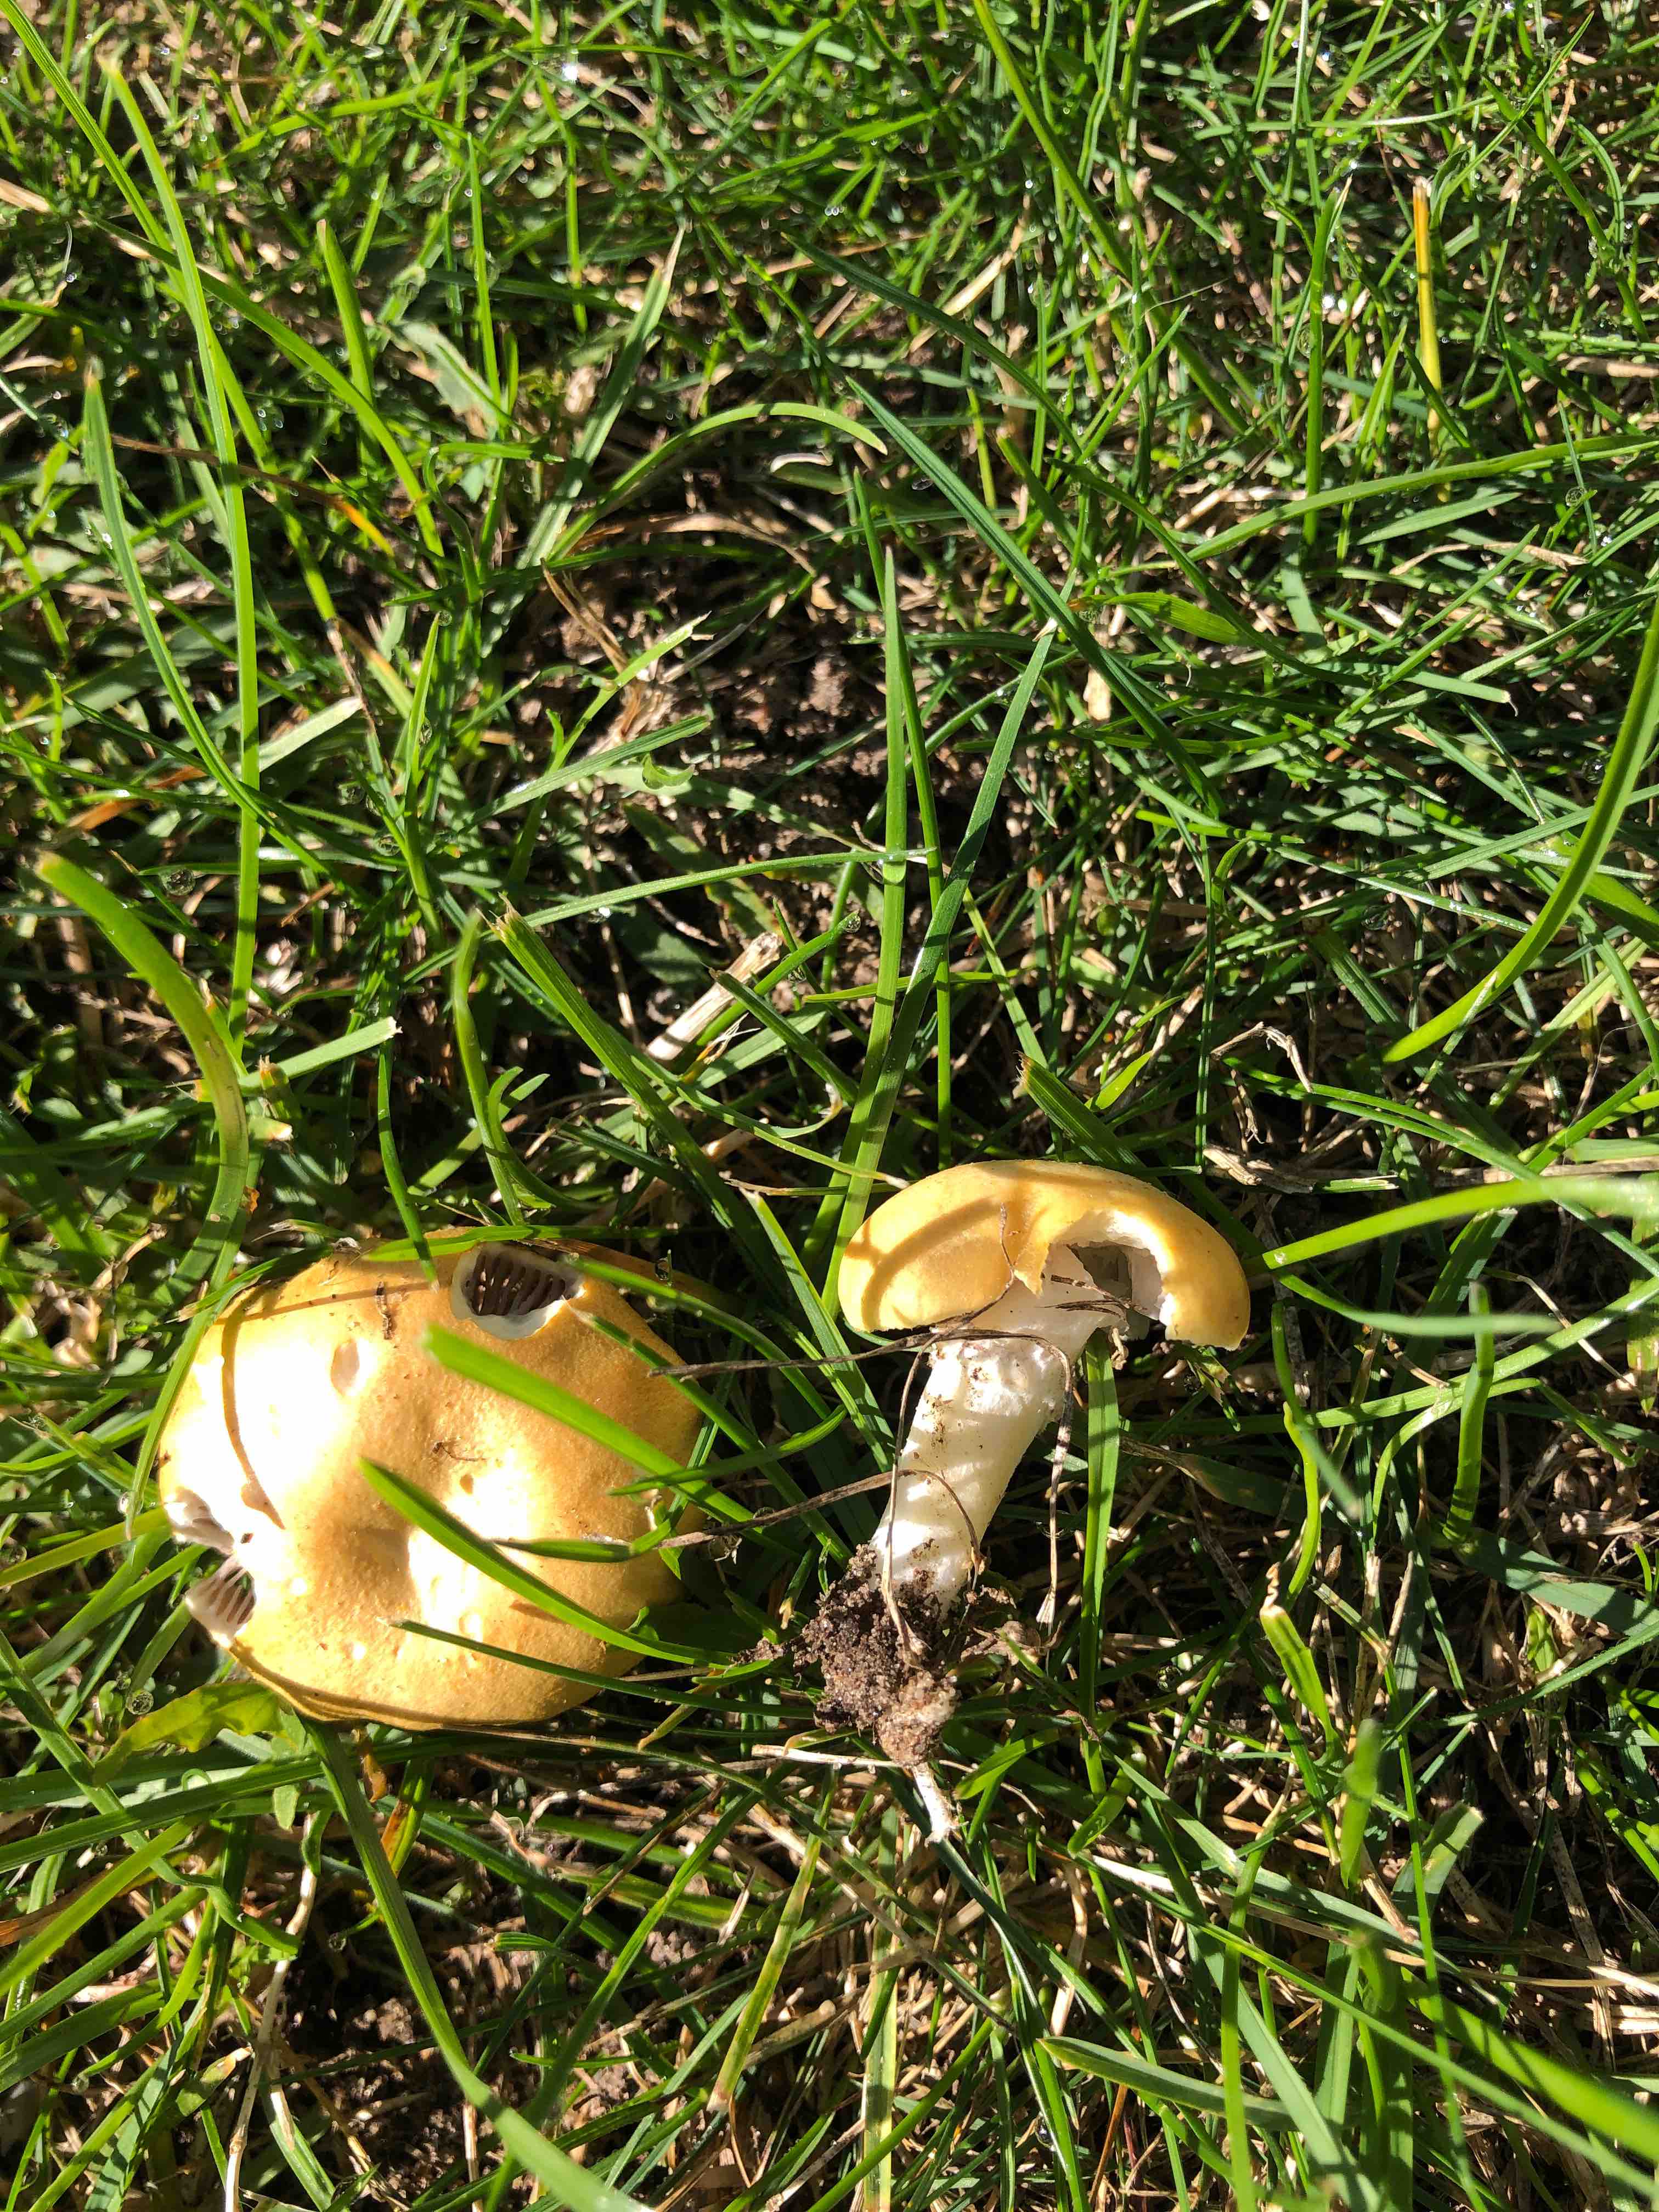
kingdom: Fungi
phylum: Basidiomycota
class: Agaricomycetes
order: Agaricales
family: Hymenogastraceae
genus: Psilocybe
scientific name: Psilocybe coronilla
